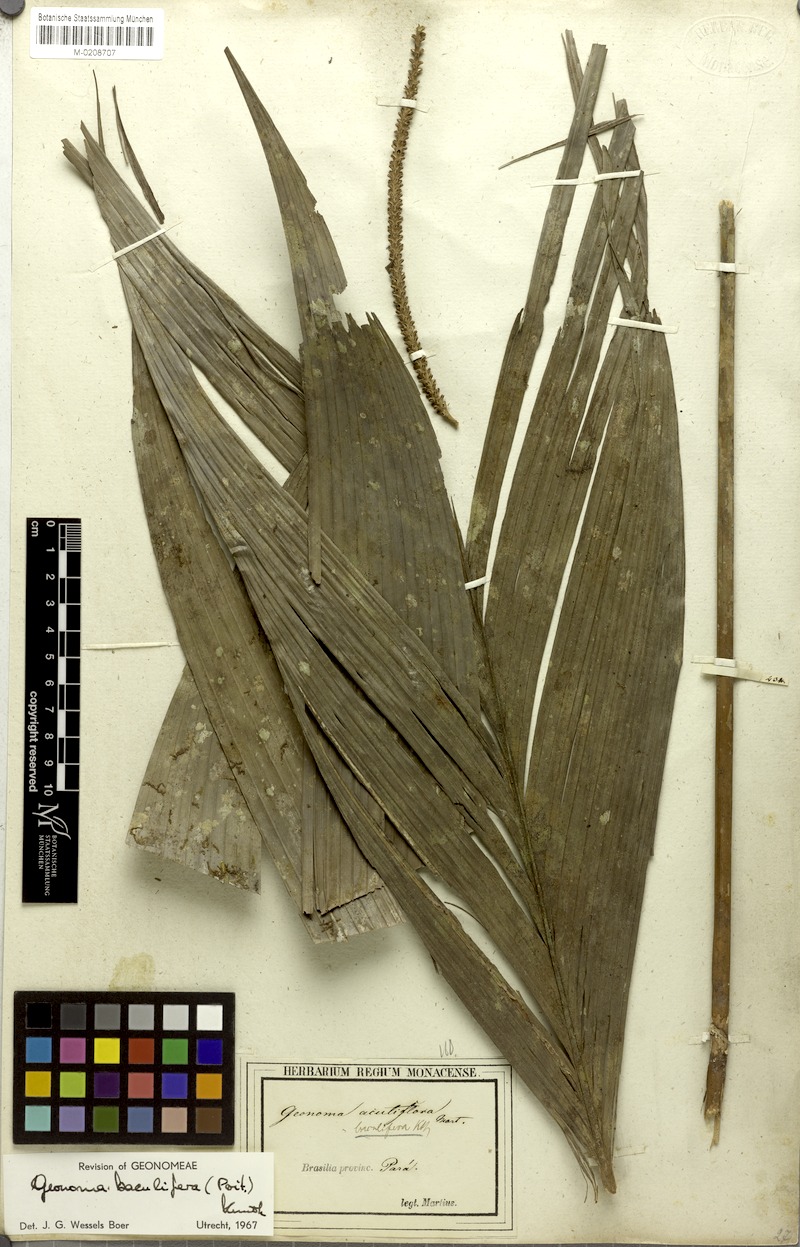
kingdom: Plantae
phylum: Tracheophyta
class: Liliopsida
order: Arecales
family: Arecaceae
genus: Geonoma
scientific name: Geonoma baculifera
